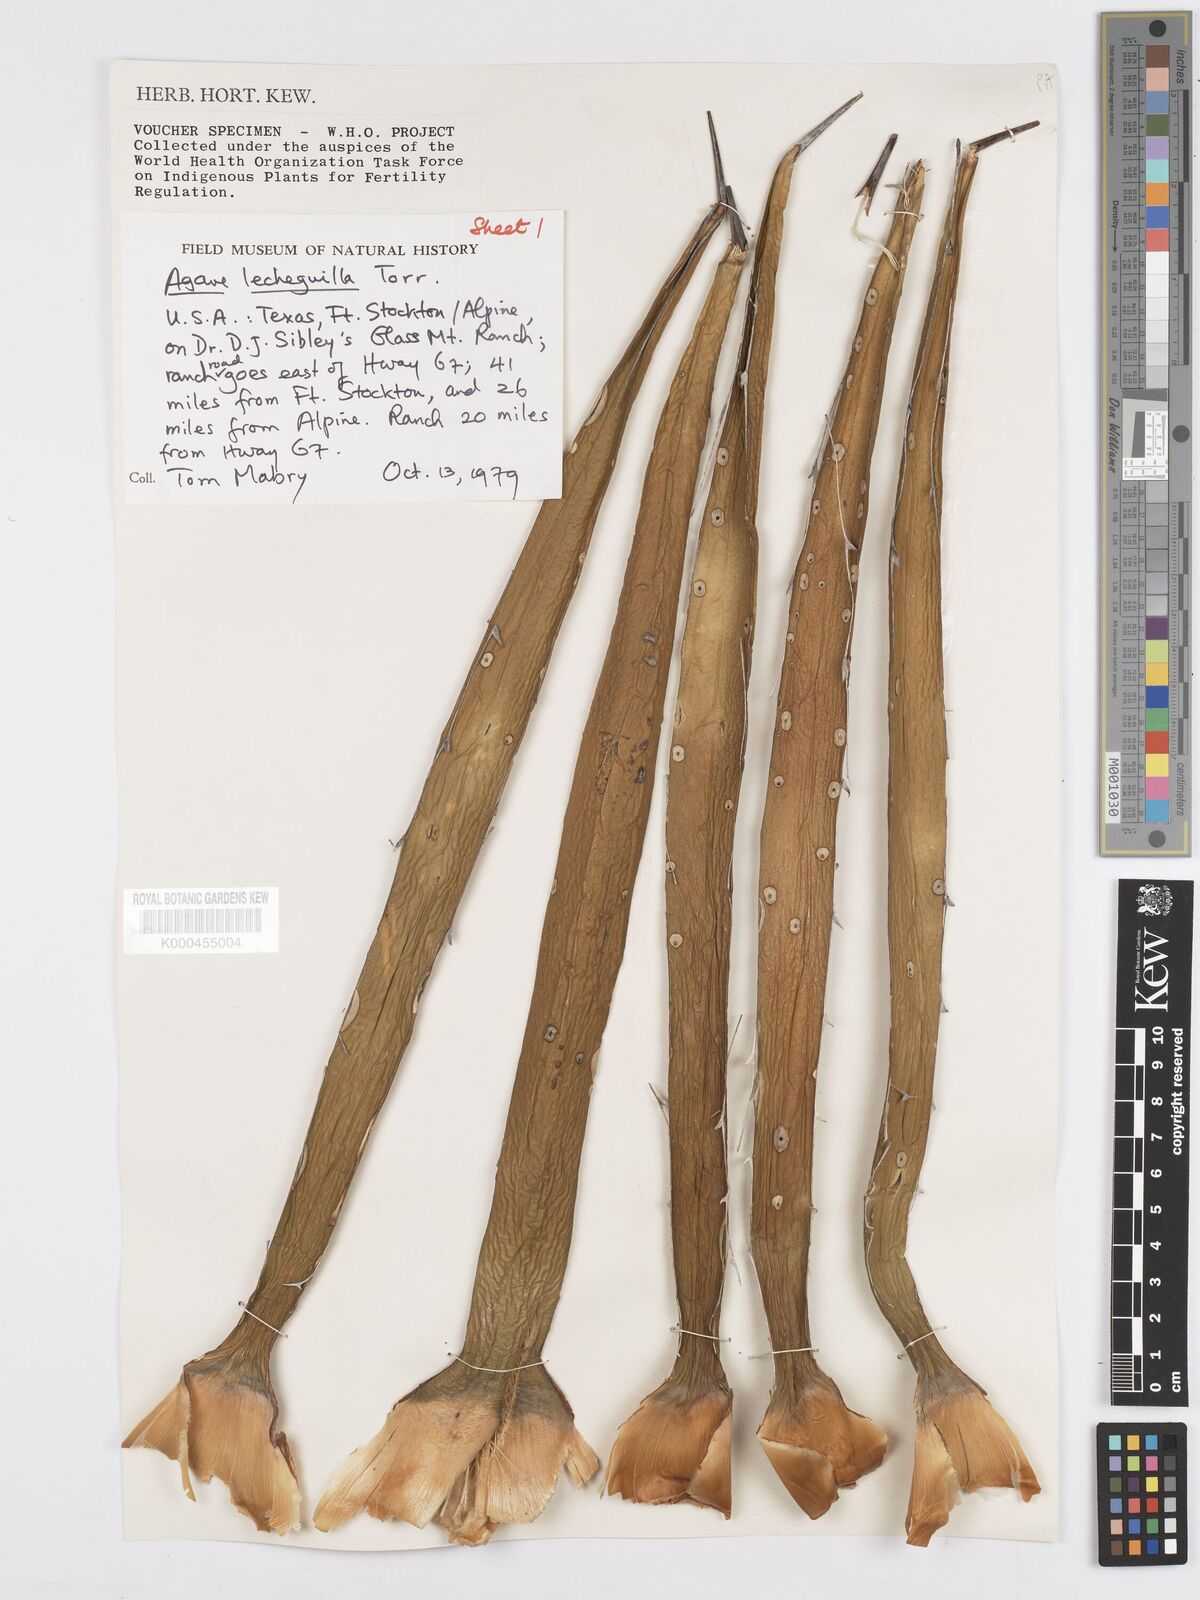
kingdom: Plantae
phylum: Tracheophyta
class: Liliopsida
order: Asparagales
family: Asparagaceae
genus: Agave
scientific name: Agave lechuguilla
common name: Lecheguilla agave
